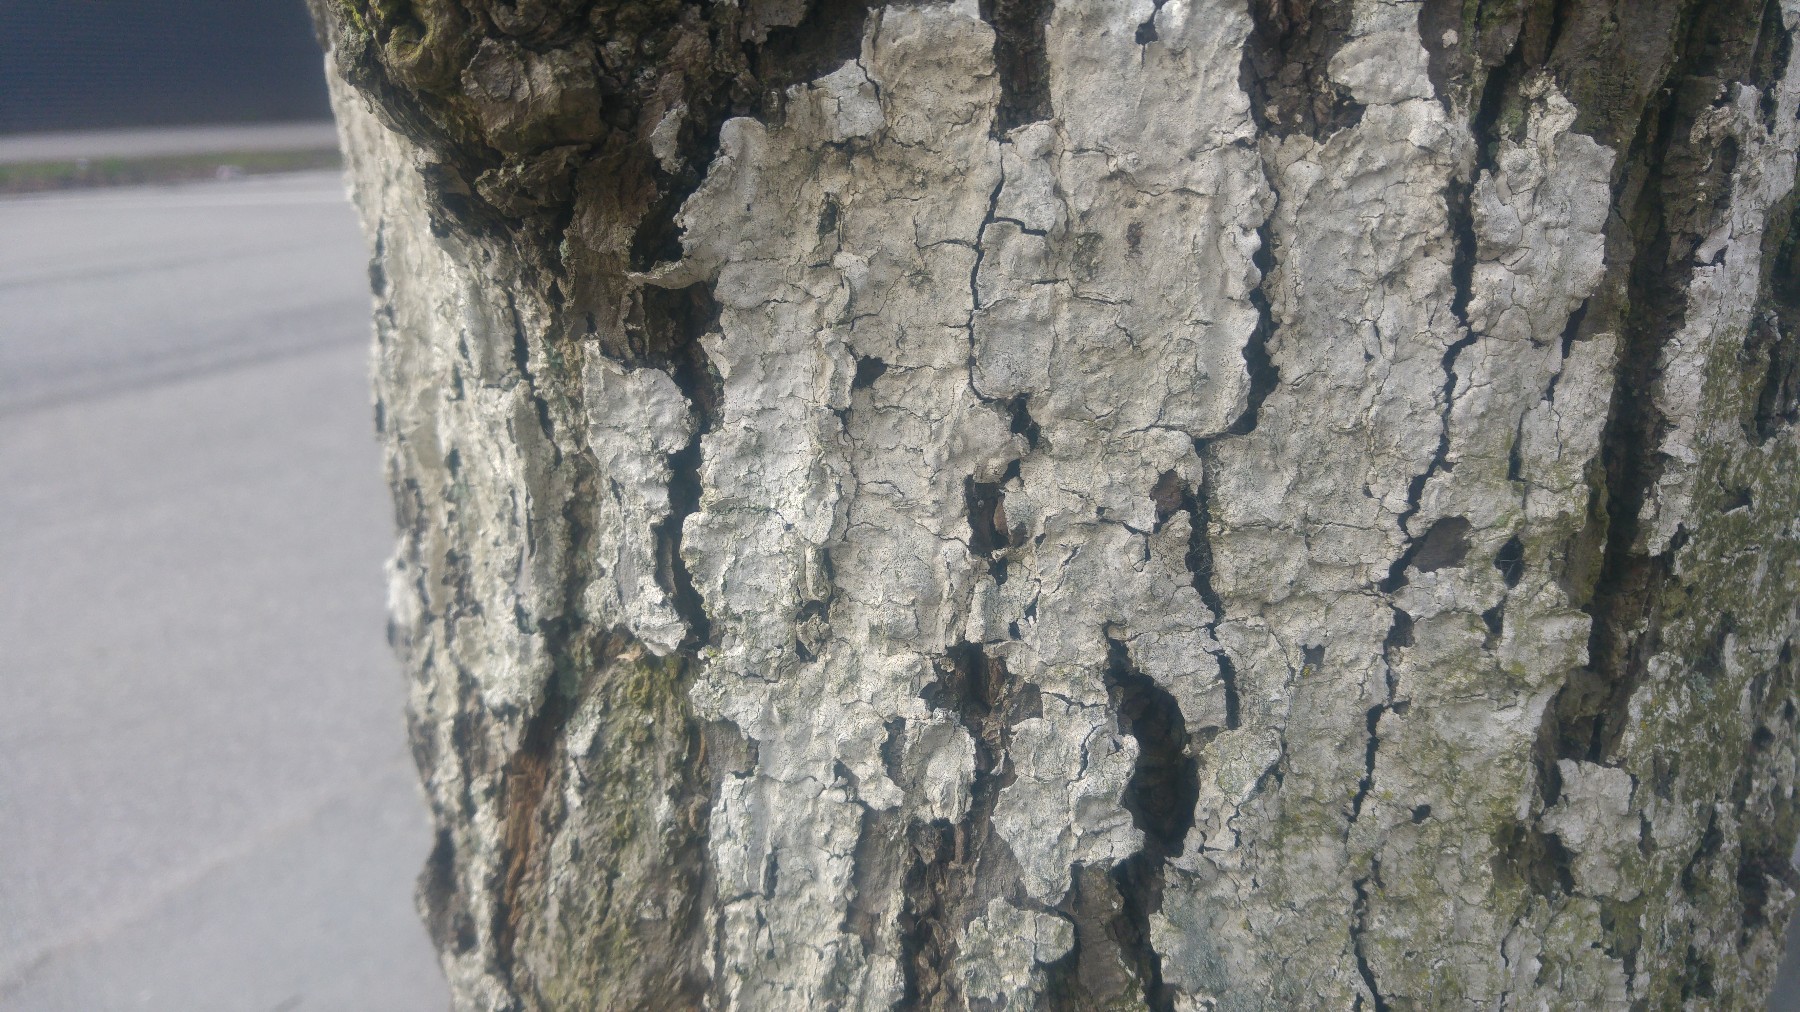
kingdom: Fungi
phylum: Ascomycota
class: Lecanoromycetes
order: Ostropales
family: Phlyctidaceae
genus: Phlyctis
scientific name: Phlyctis argena
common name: almindelig sølvlav
